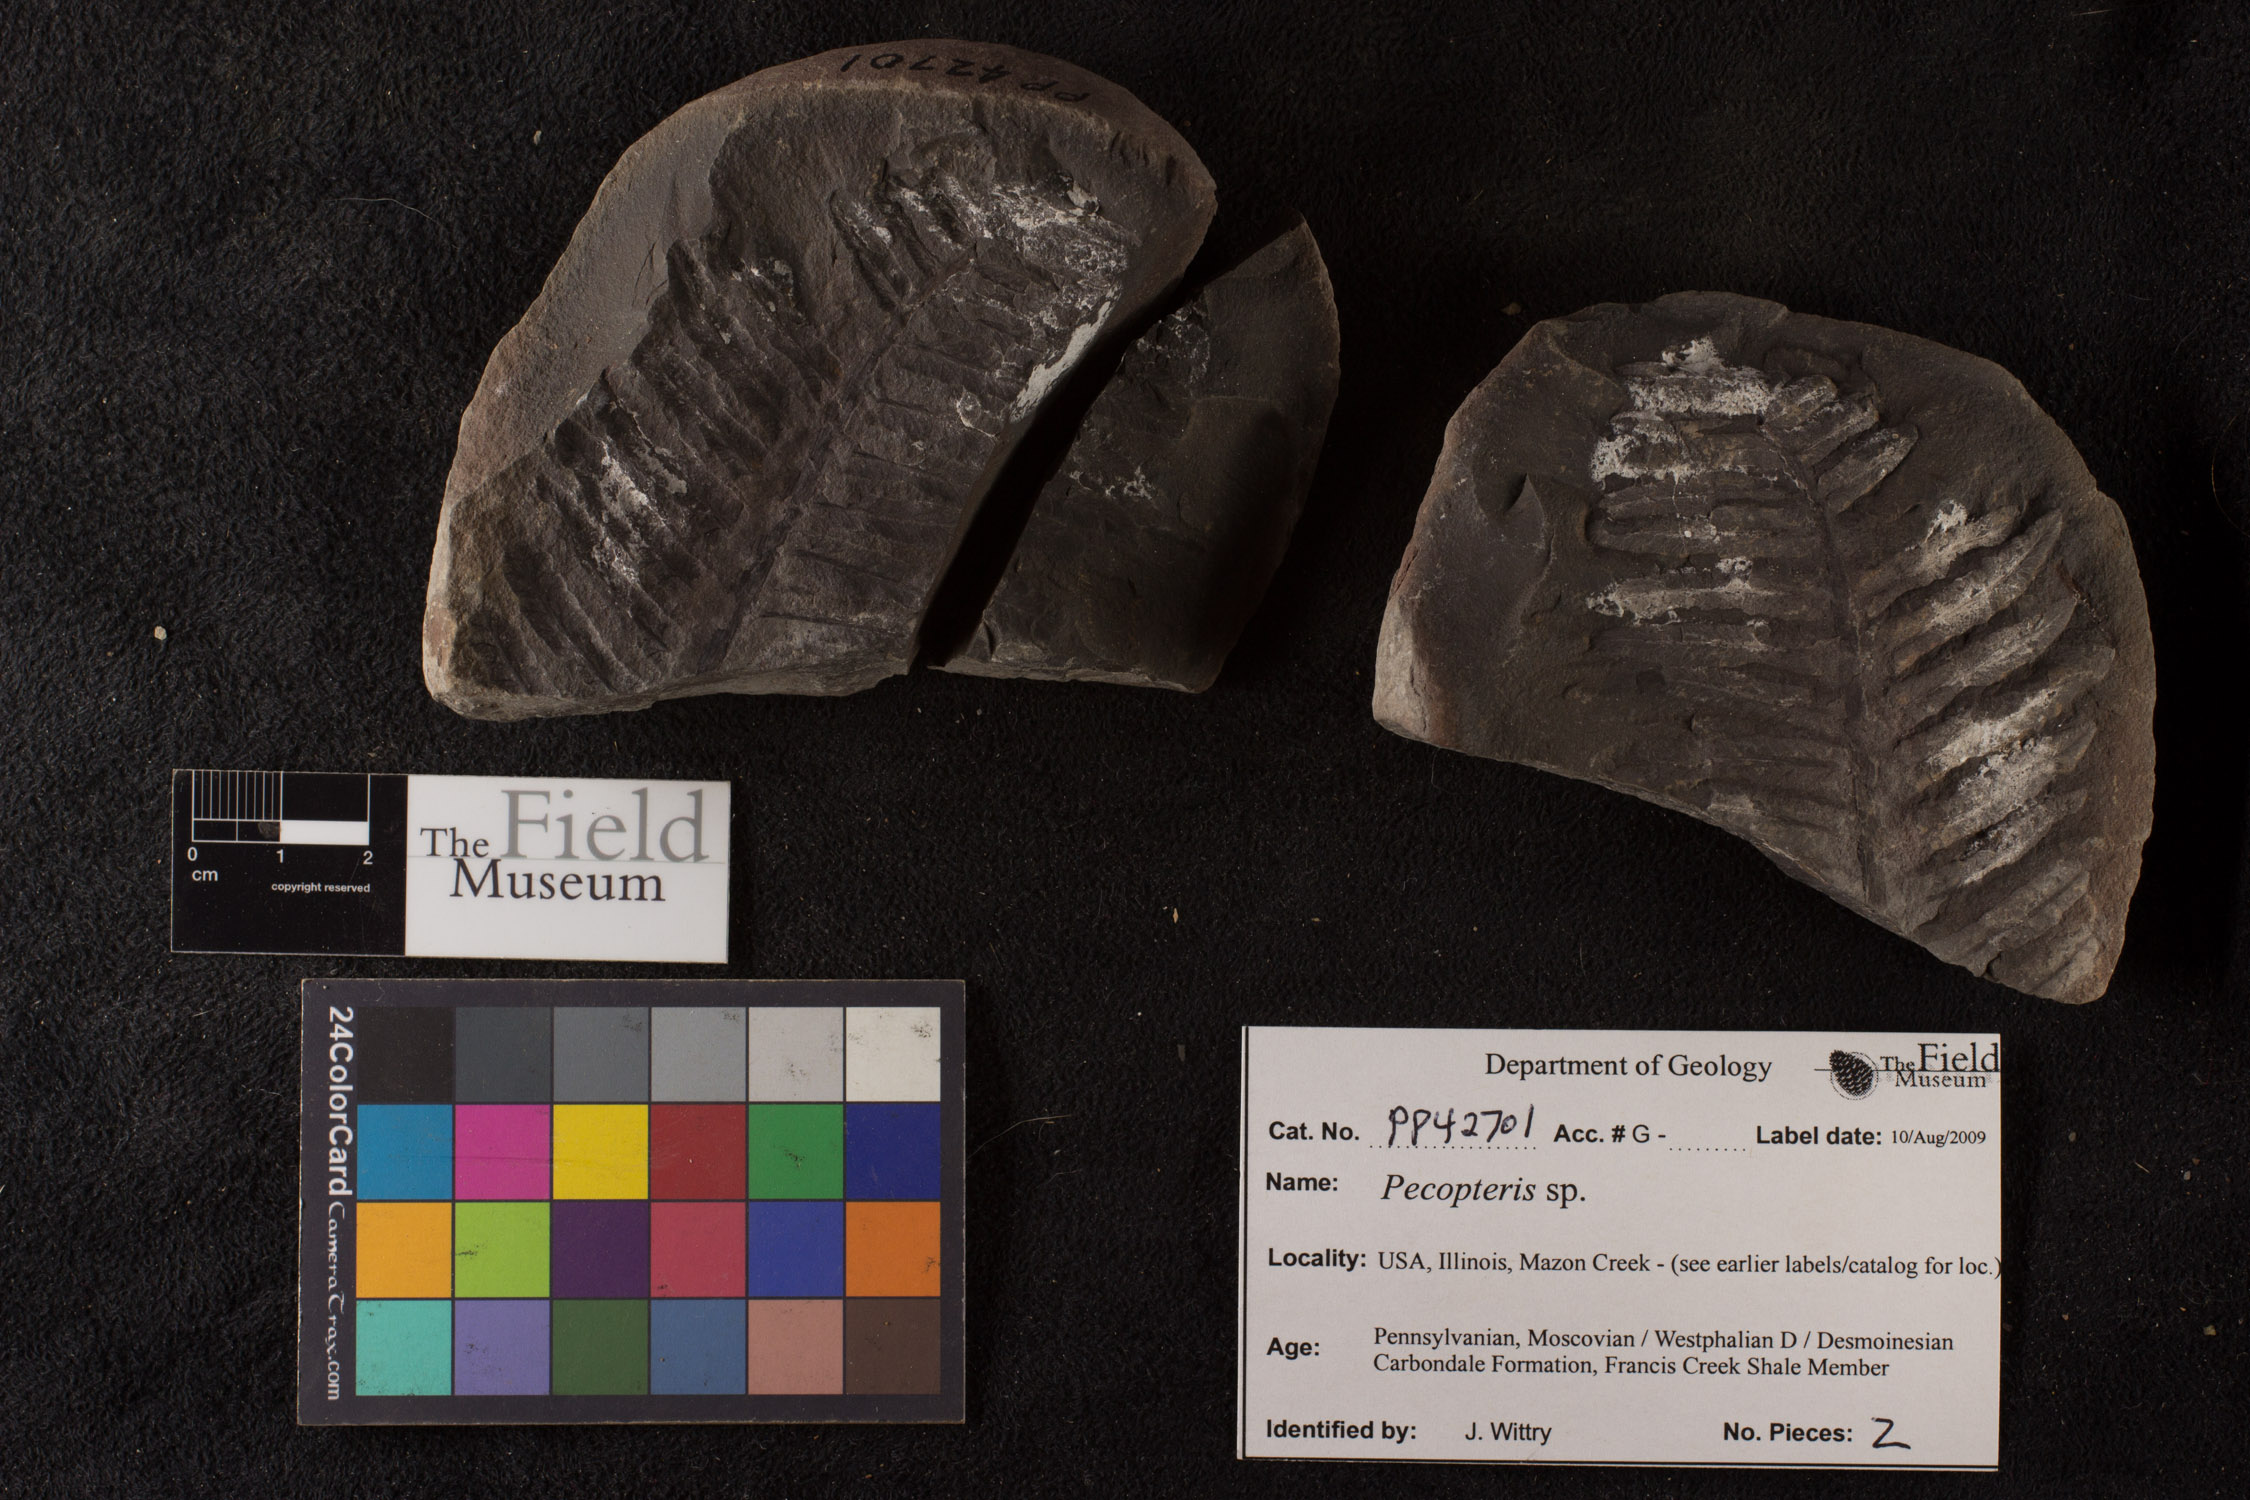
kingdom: Plantae
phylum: Tracheophyta
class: Polypodiopsida
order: Marattiales
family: Asterothecaceae
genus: Pecopteris
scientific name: Pecopteris
